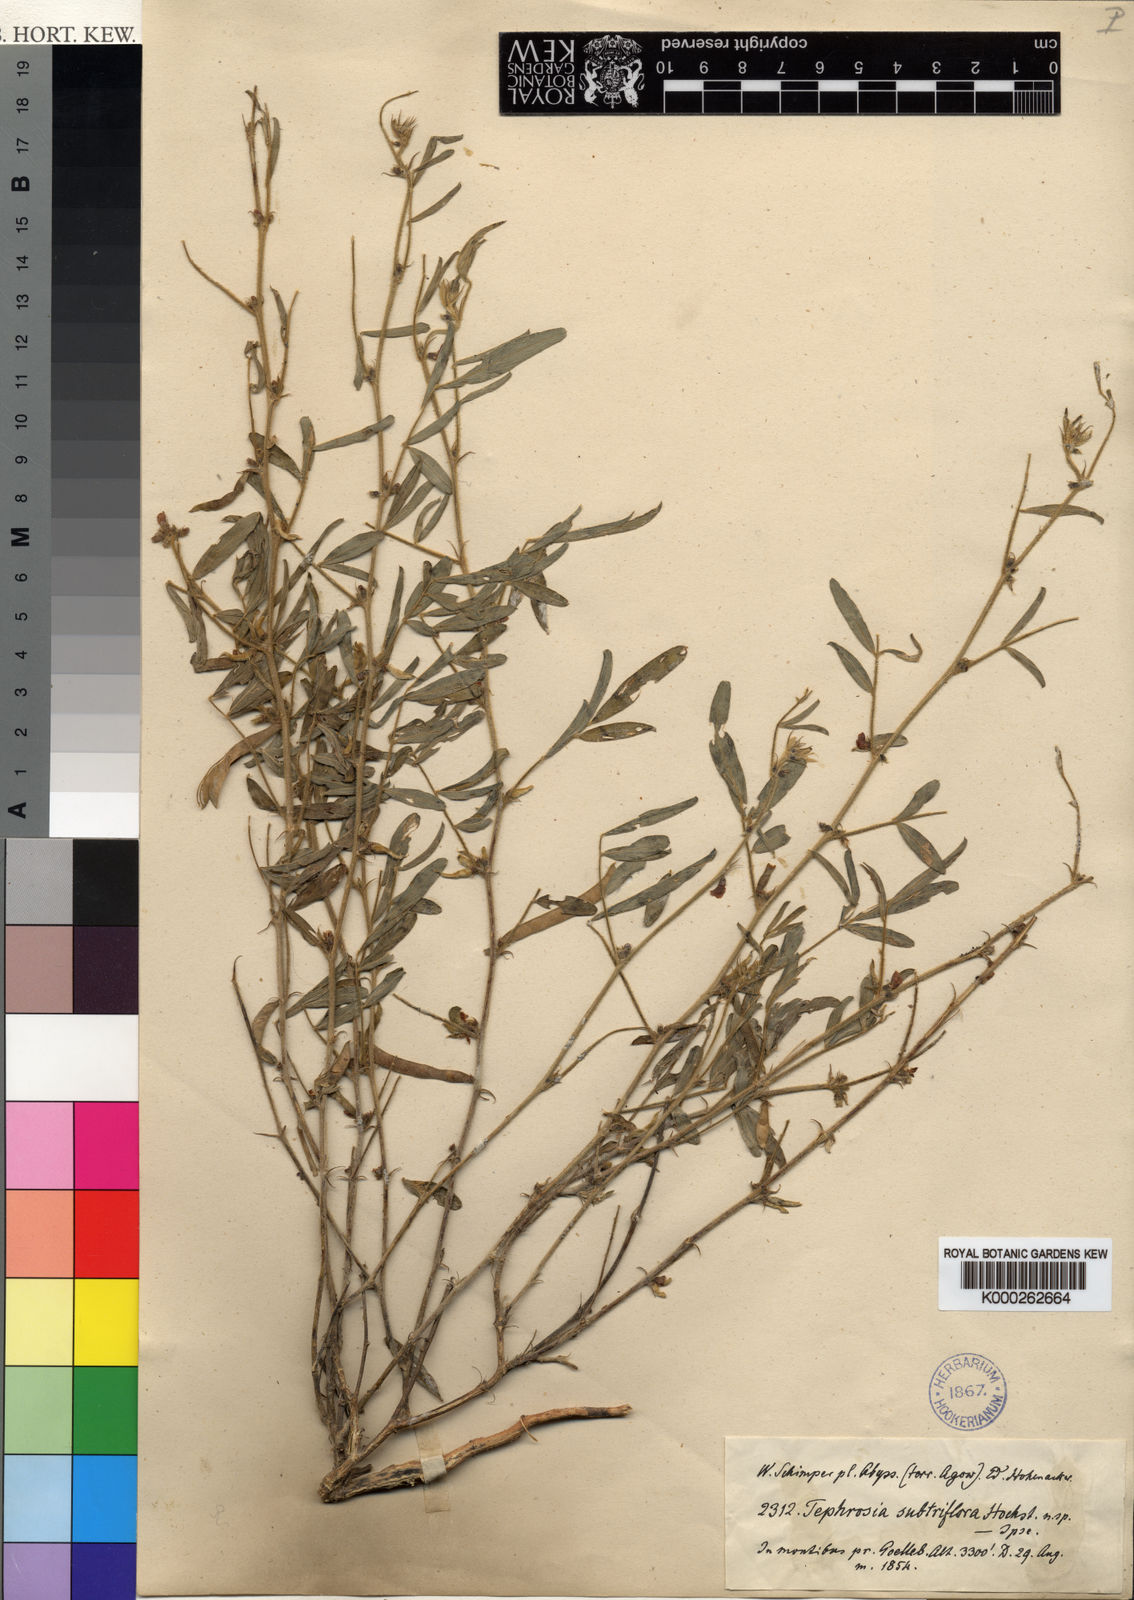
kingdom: Plantae
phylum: Tracheophyta
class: Magnoliopsida
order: Fabales
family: Fabaceae
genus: Tephrosia
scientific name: Tephrosia
